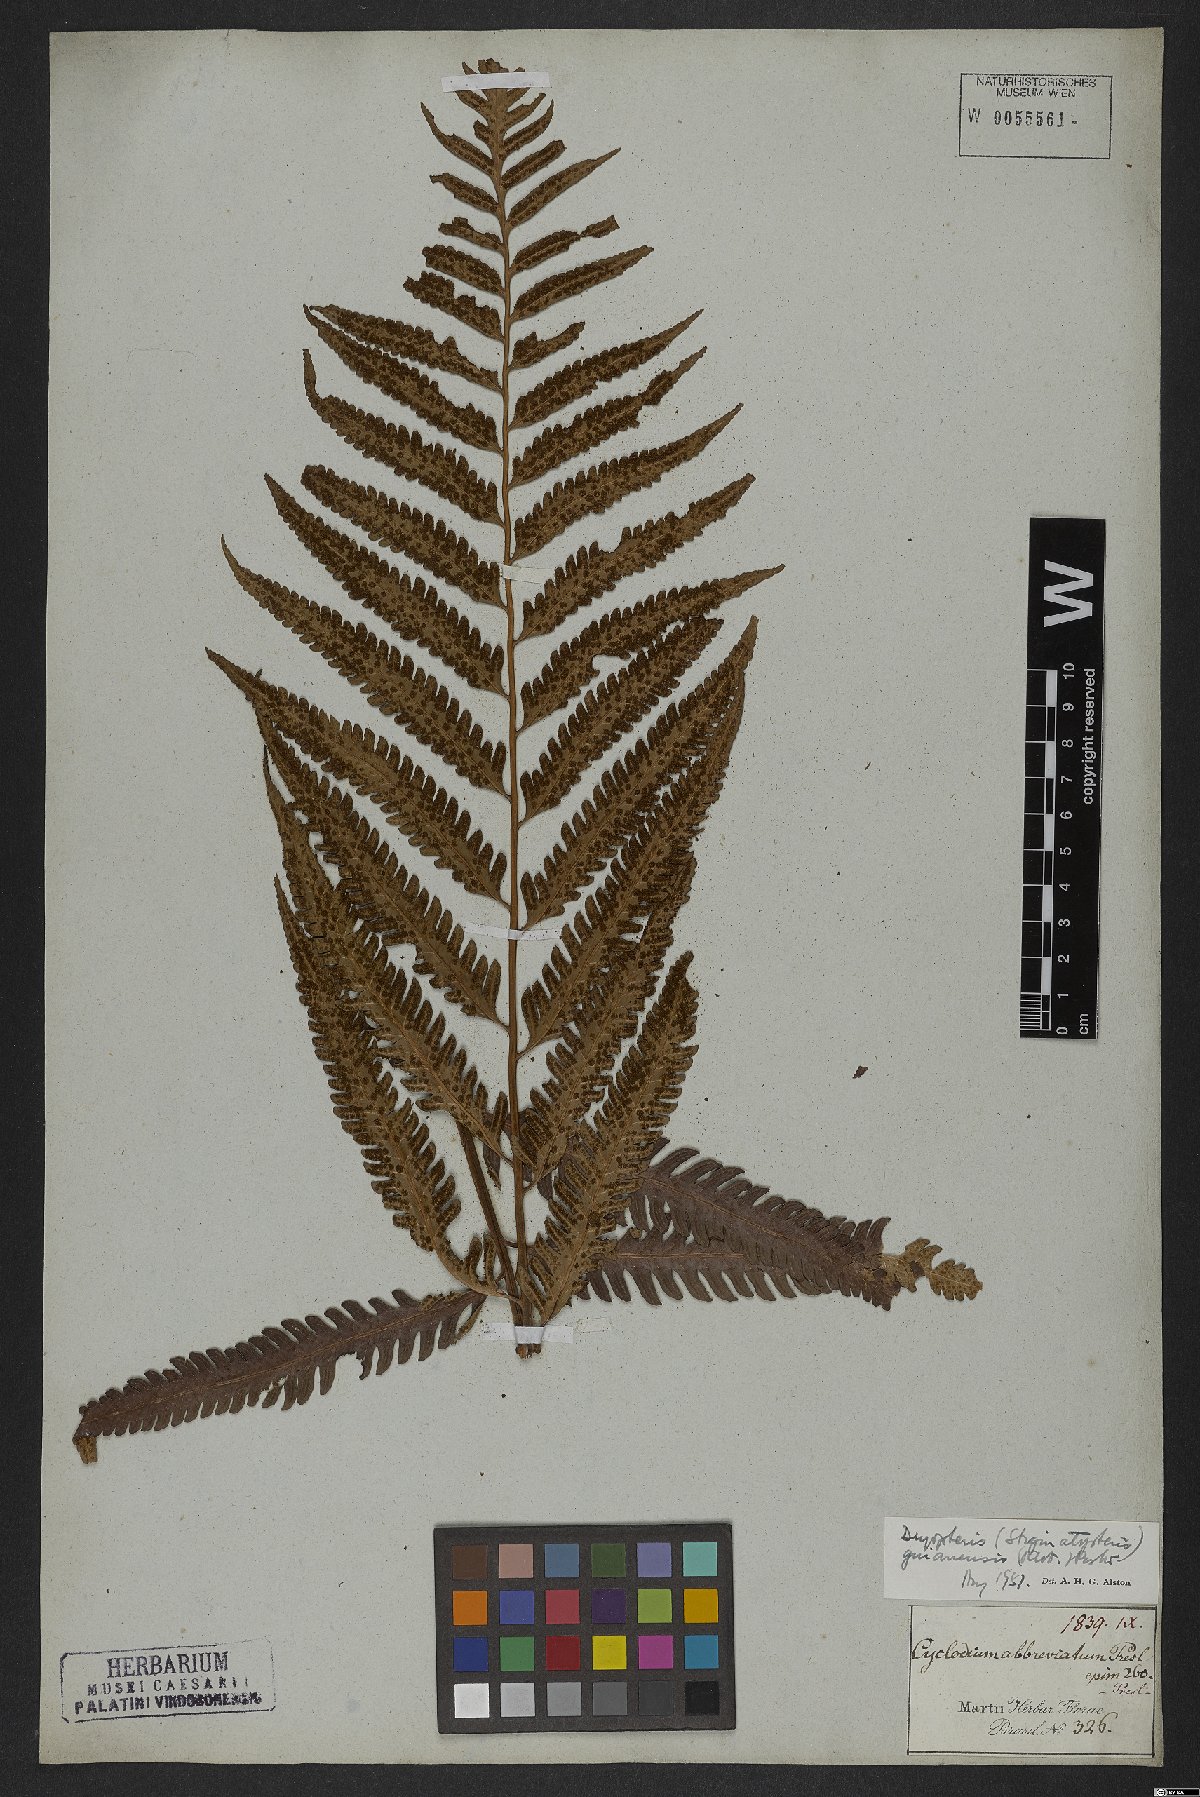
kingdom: Plantae
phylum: Tracheophyta
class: Polypodiopsida
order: Polypodiales
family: Dryopteridaceae
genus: Cyclodium
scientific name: Cyclodium guianense
